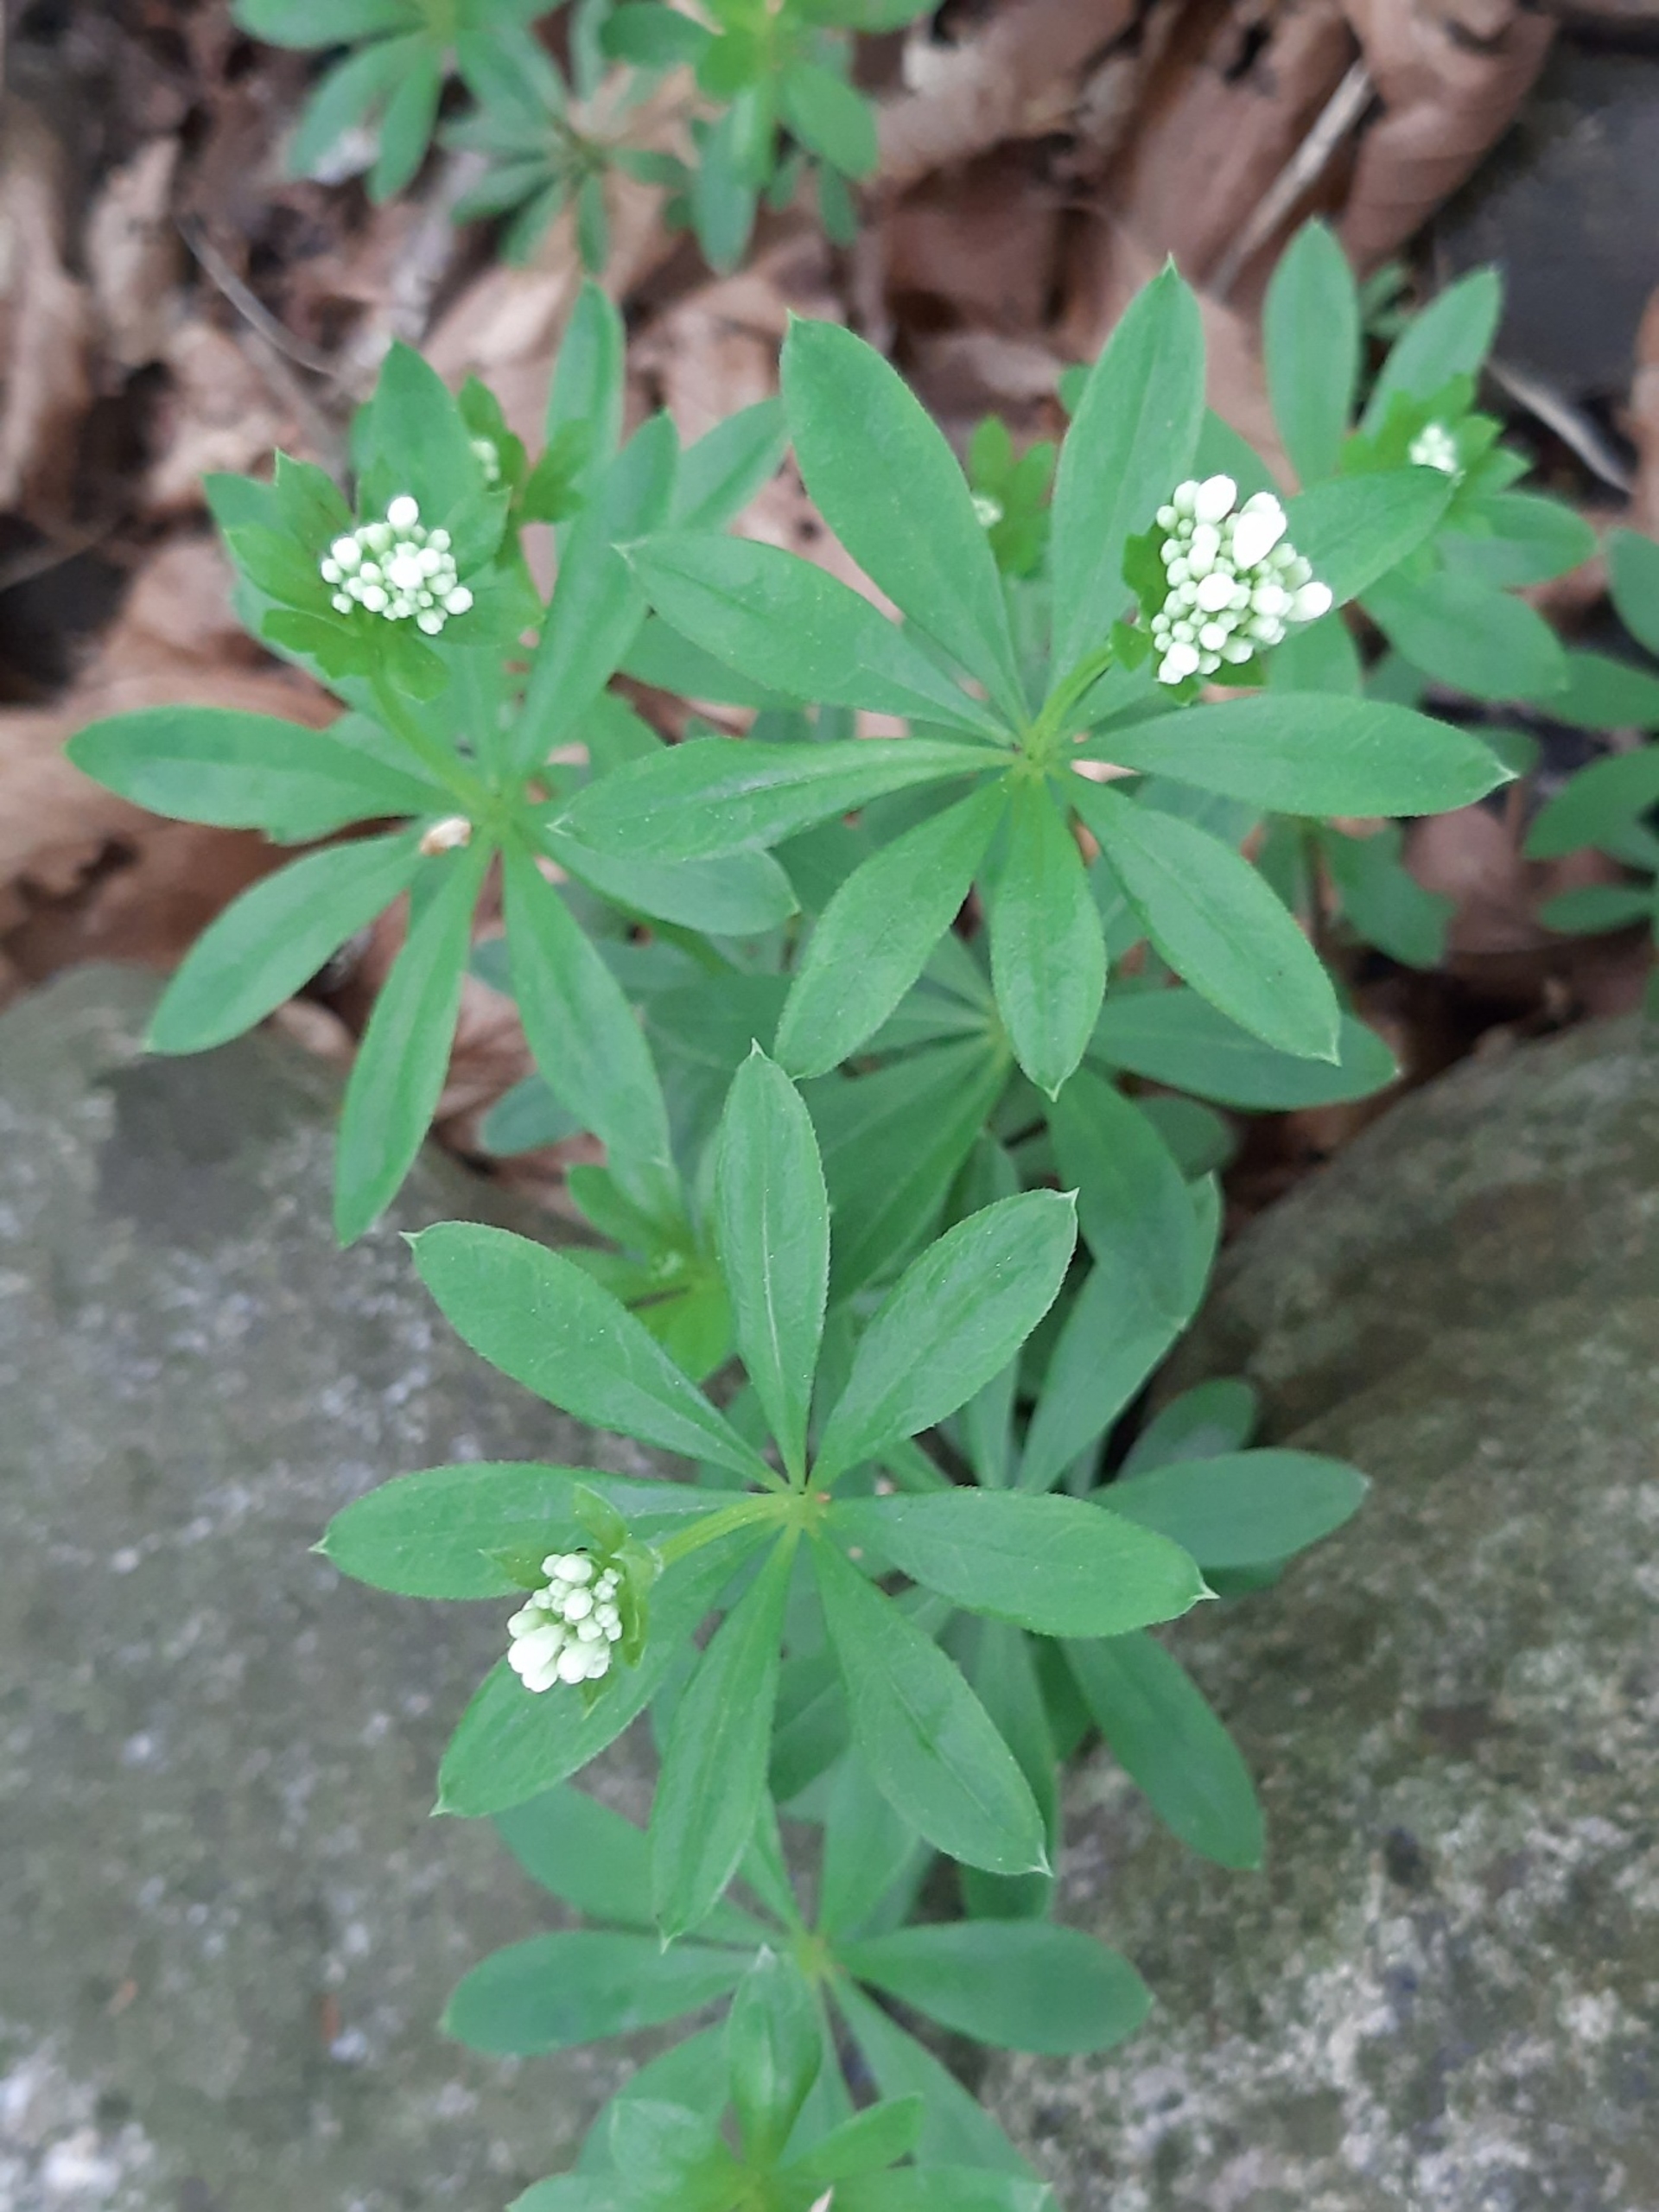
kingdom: Plantae
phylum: Tracheophyta
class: Magnoliopsida
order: Gentianales
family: Rubiaceae
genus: Galium
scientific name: Galium odoratum
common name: Skovmærke
